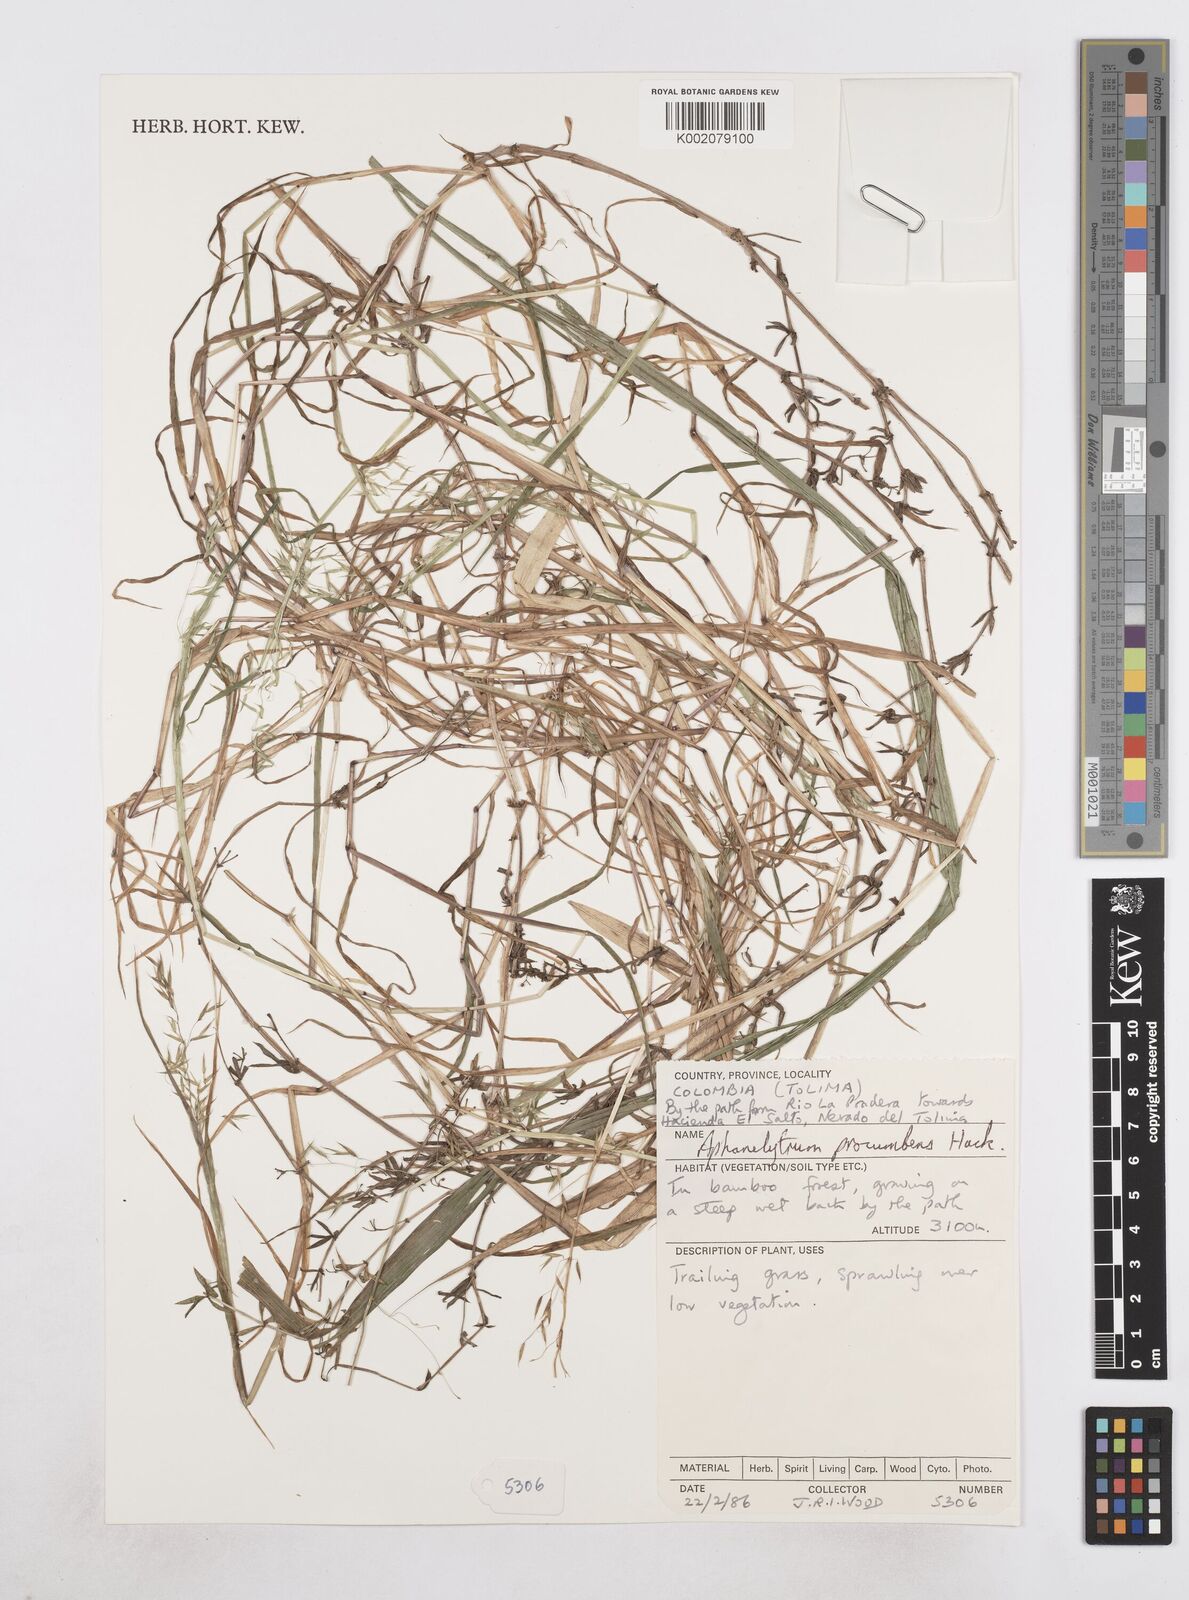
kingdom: Plantae
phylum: Tracheophyta
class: Liliopsida
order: Poales
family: Poaceae
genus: Poa
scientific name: Poa hitchcockiana
